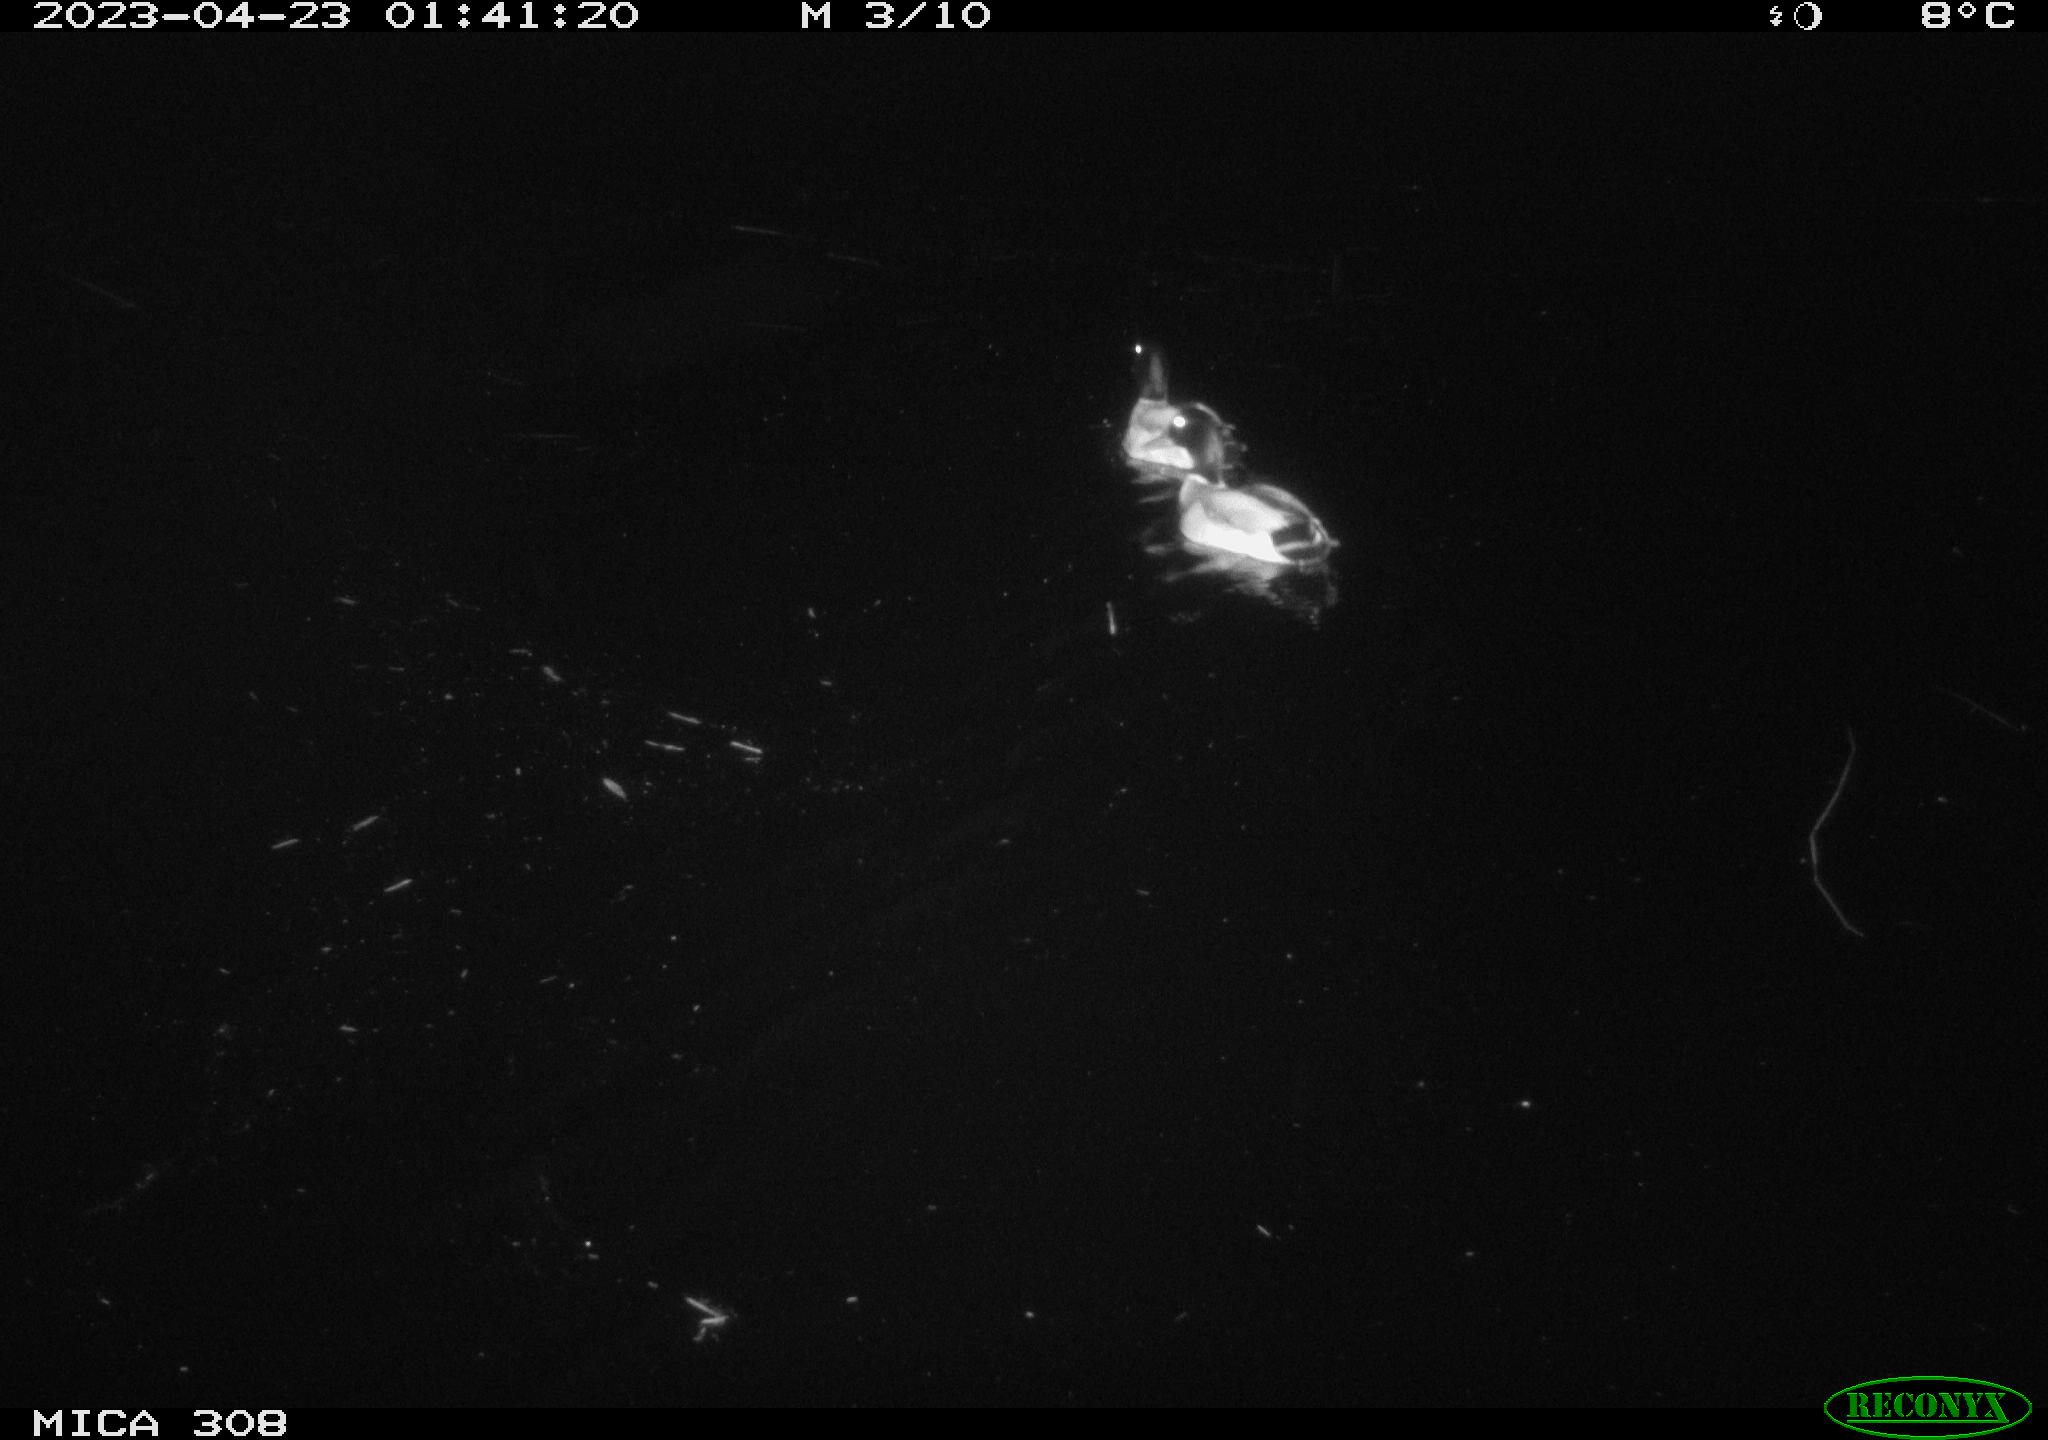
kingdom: Animalia
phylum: Chordata
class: Aves
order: Anseriformes
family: Anatidae
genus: Anas
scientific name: Anas
